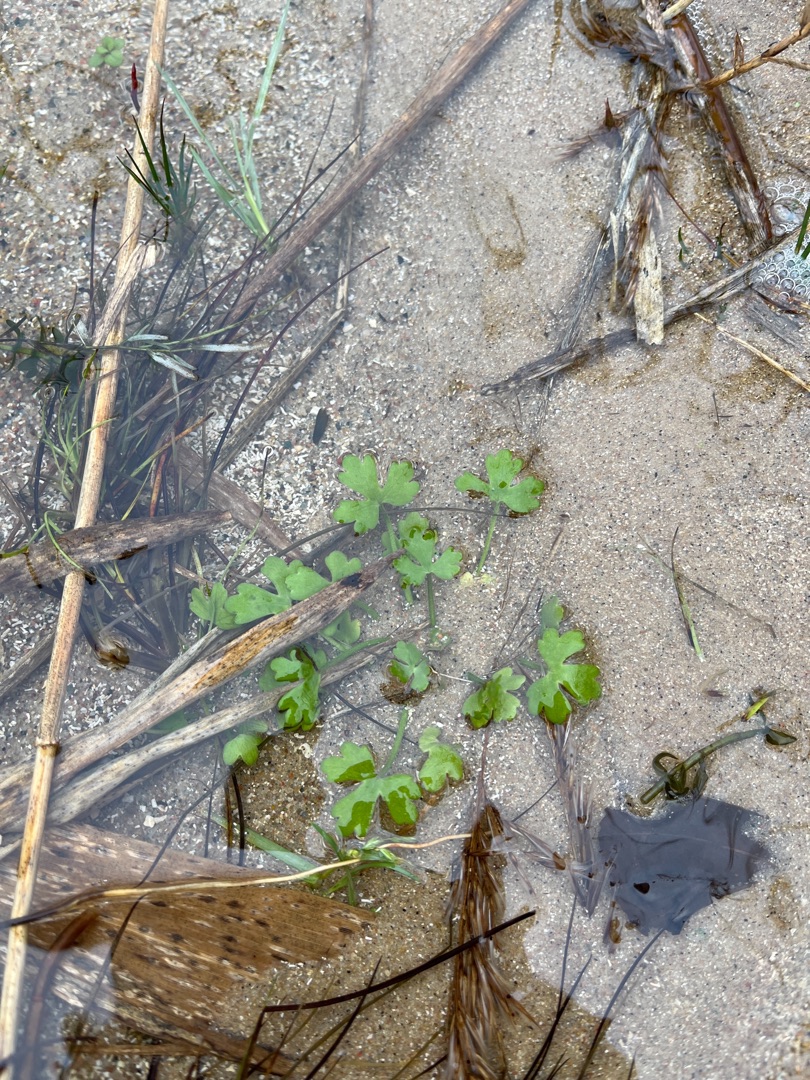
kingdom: Plantae
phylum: Tracheophyta
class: Magnoliopsida
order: Ranunculales
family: Ranunculaceae
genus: Ranunculus
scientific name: Ranunculus sceleratus
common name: Tigger-ranunkel
